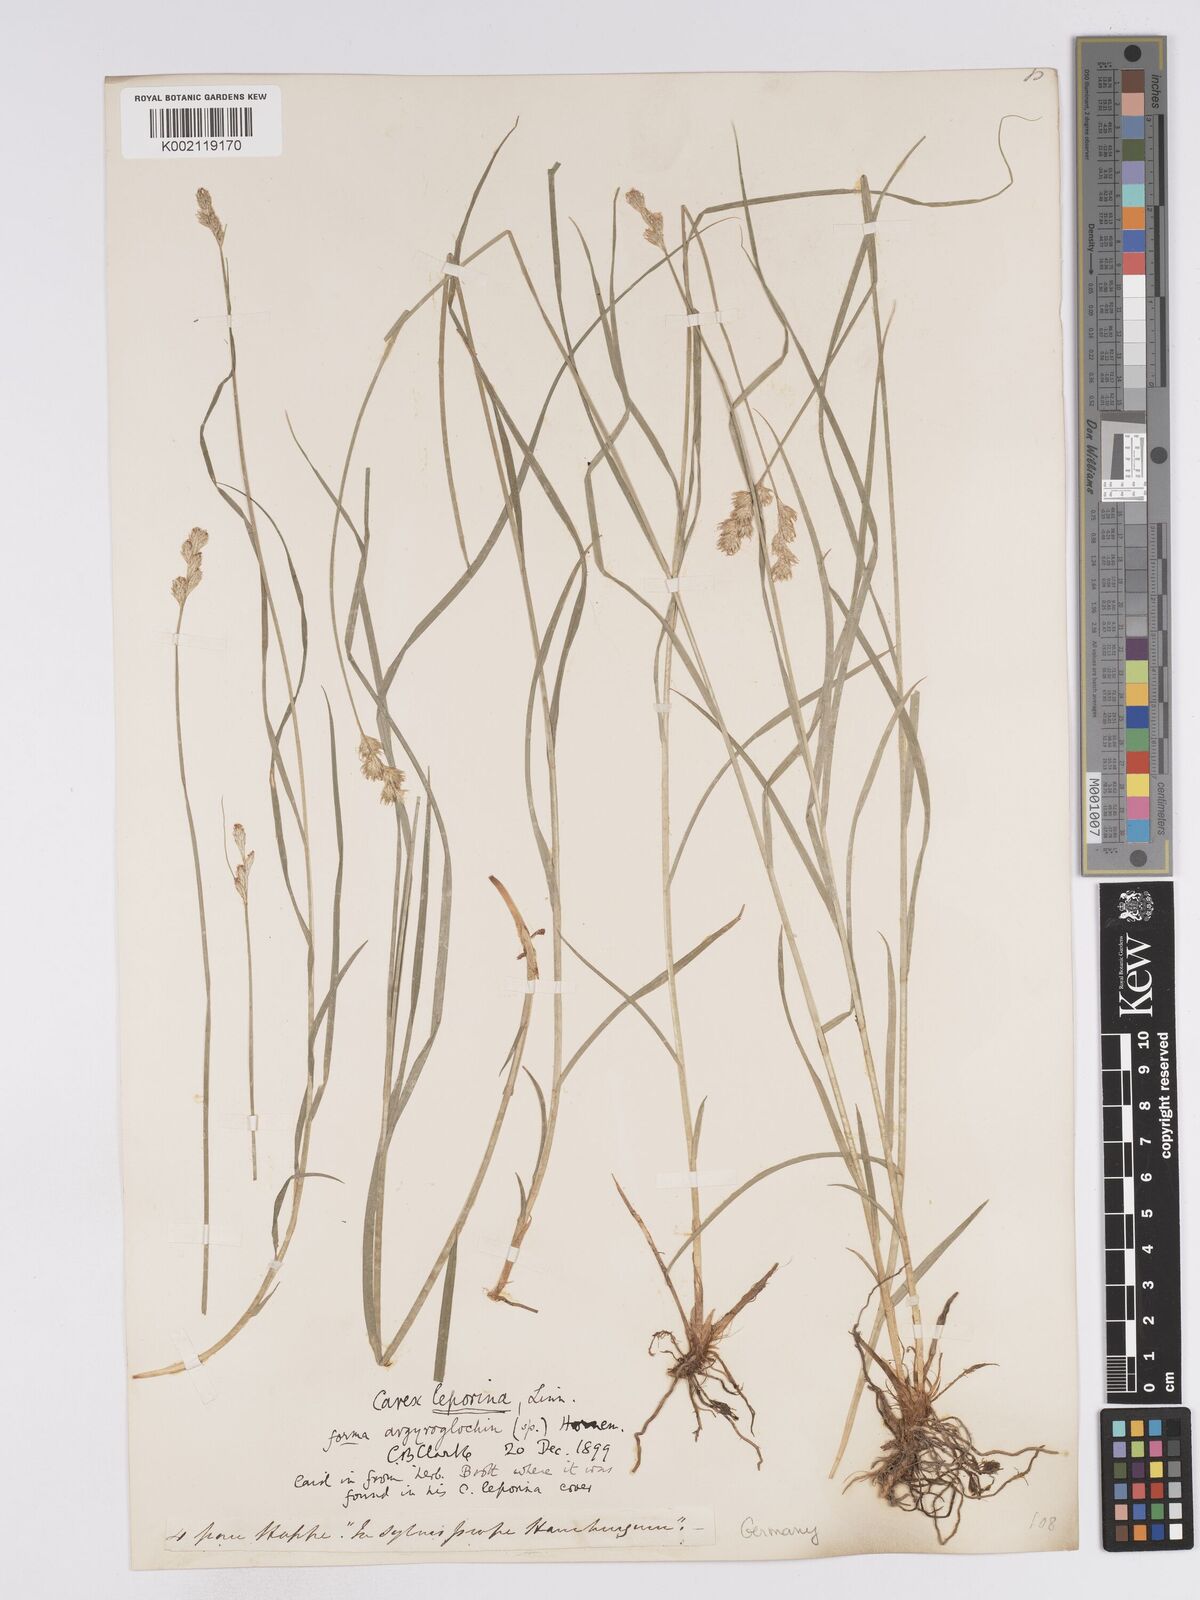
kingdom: Plantae
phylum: Tracheophyta
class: Liliopsida
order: Poales
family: Cyperaceae
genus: Carex
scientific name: Carex leporina
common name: Oval sedge
